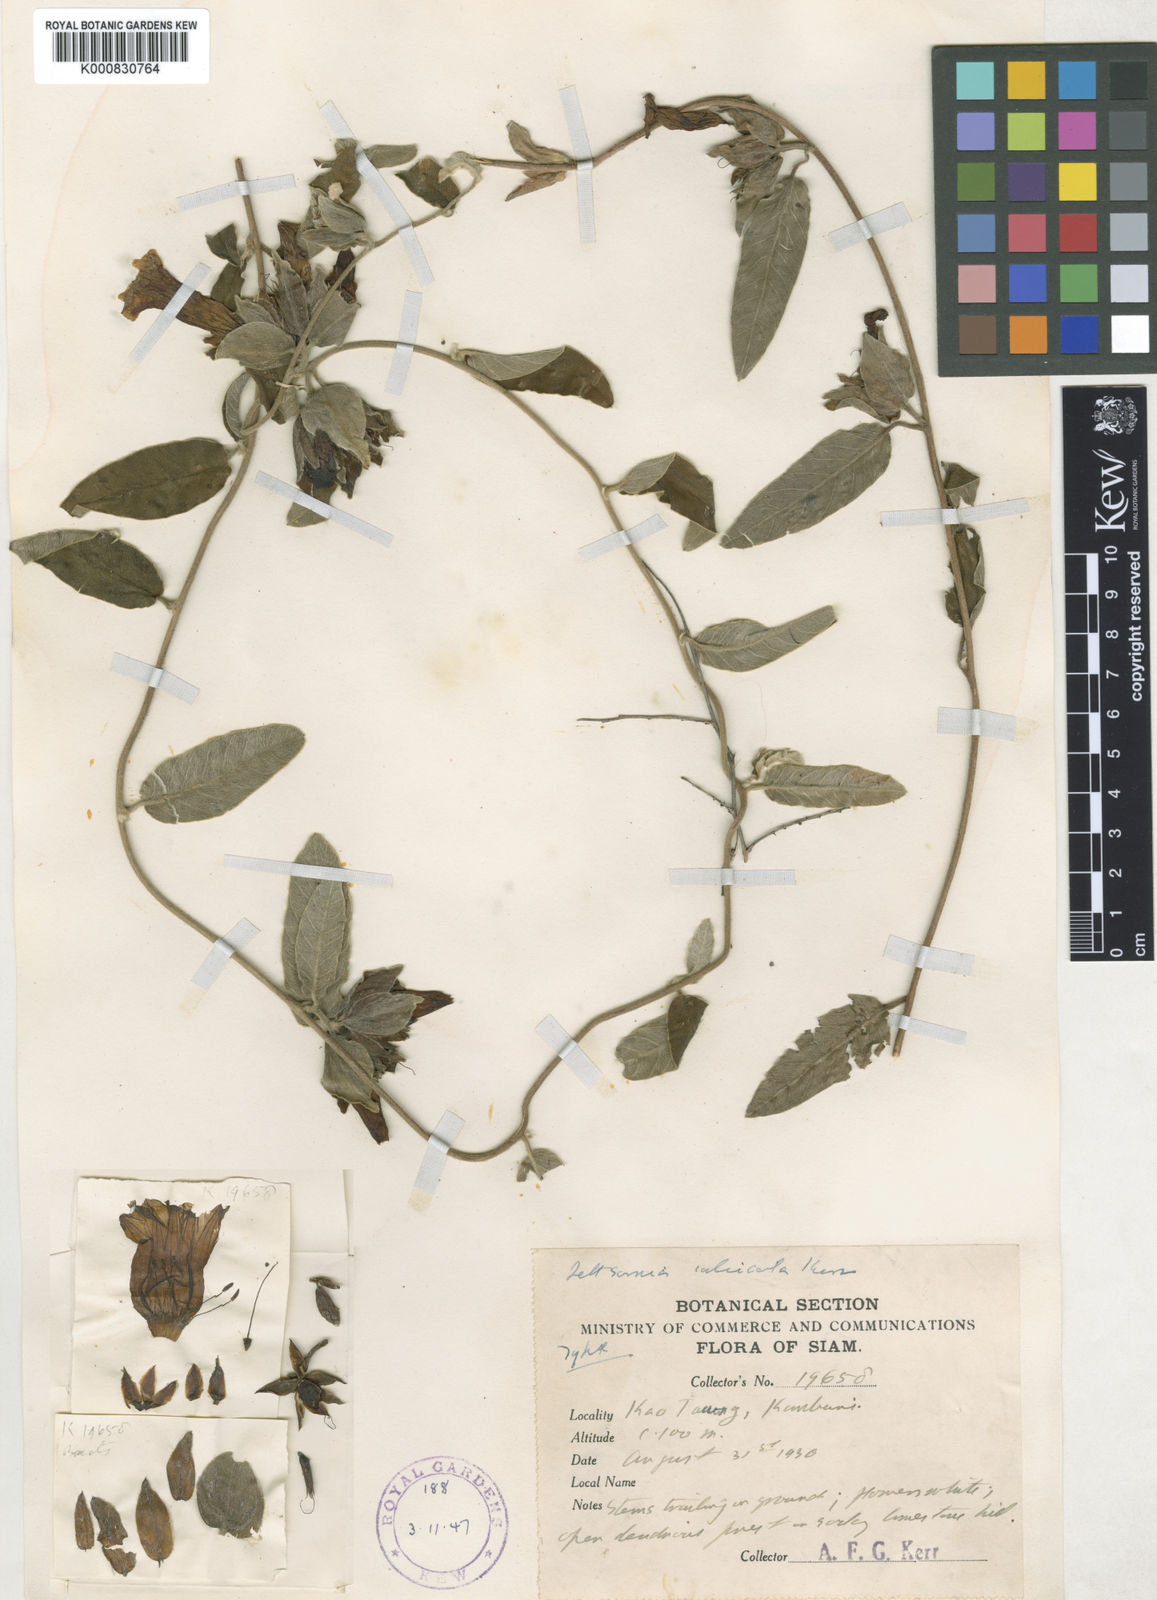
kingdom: Plantae
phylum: Tracheophyta
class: Magnoliopsida
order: Solanales
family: Convolvulaceae
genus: Argyreia
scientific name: Argyreia breviscapa
